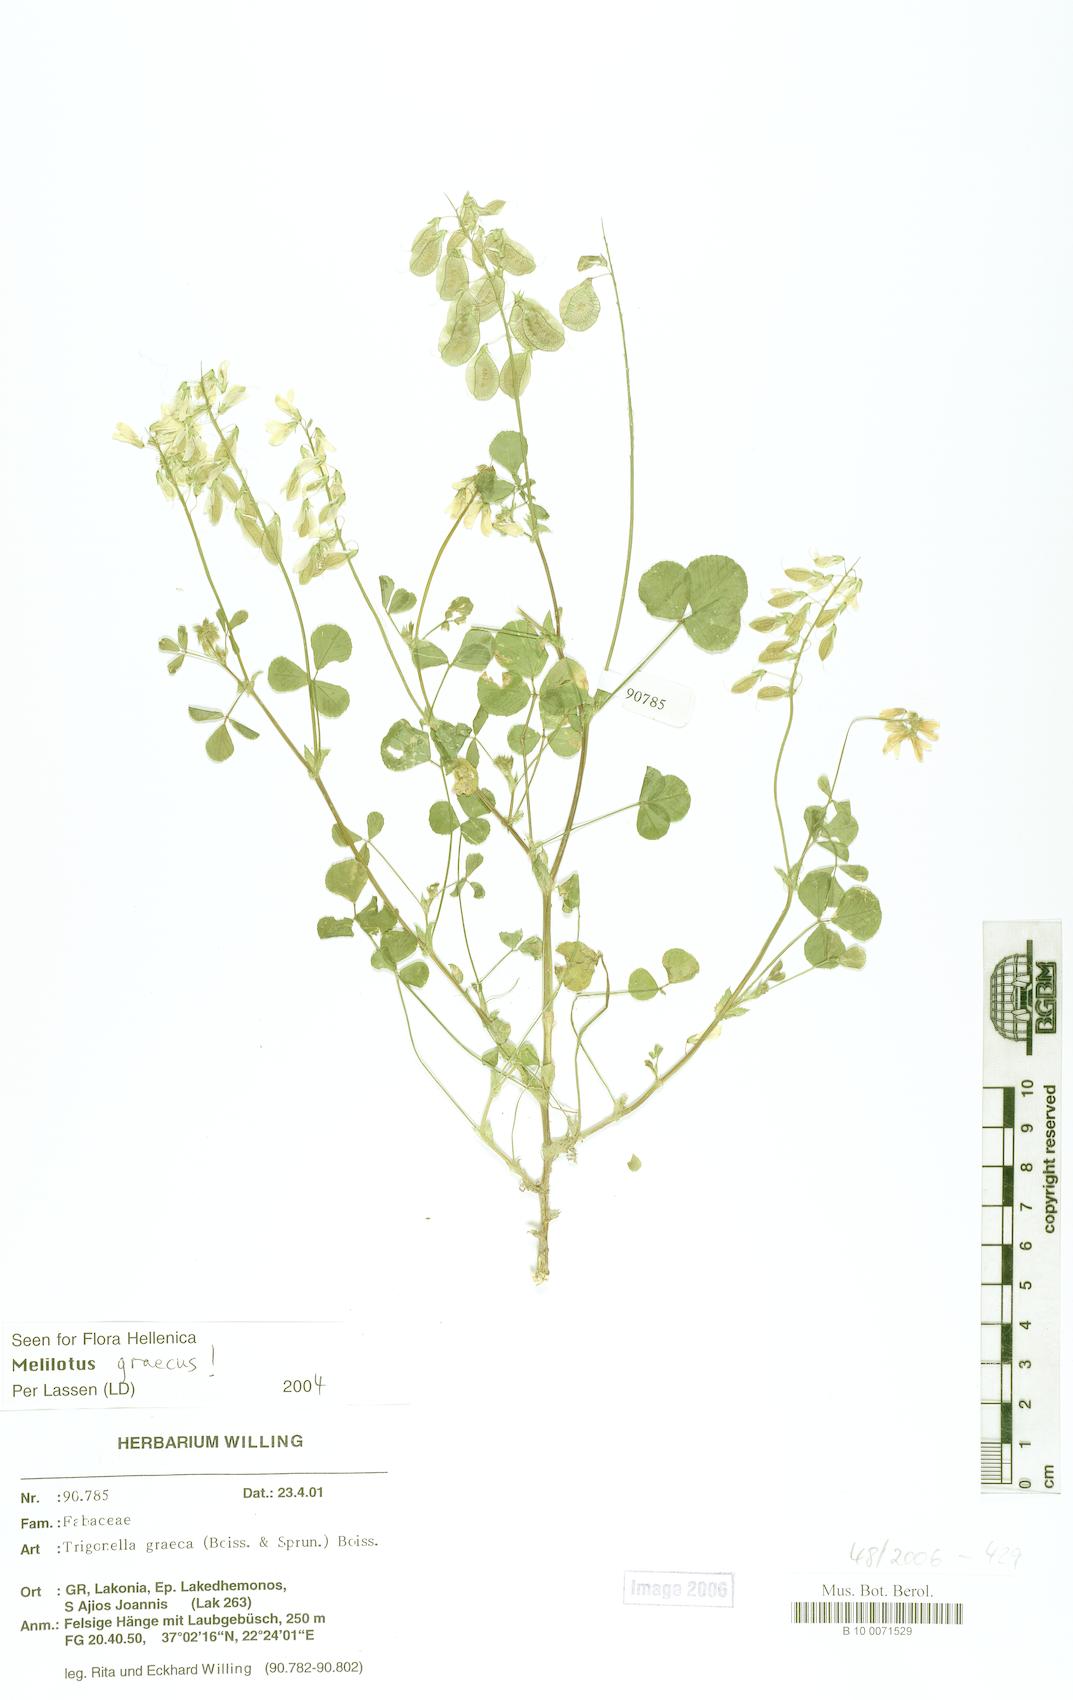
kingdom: Plantae
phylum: Tracheophyta
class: Magnoliopsida
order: Fabales
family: Fabaceae
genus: Trigonella
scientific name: Trigonella graeca
